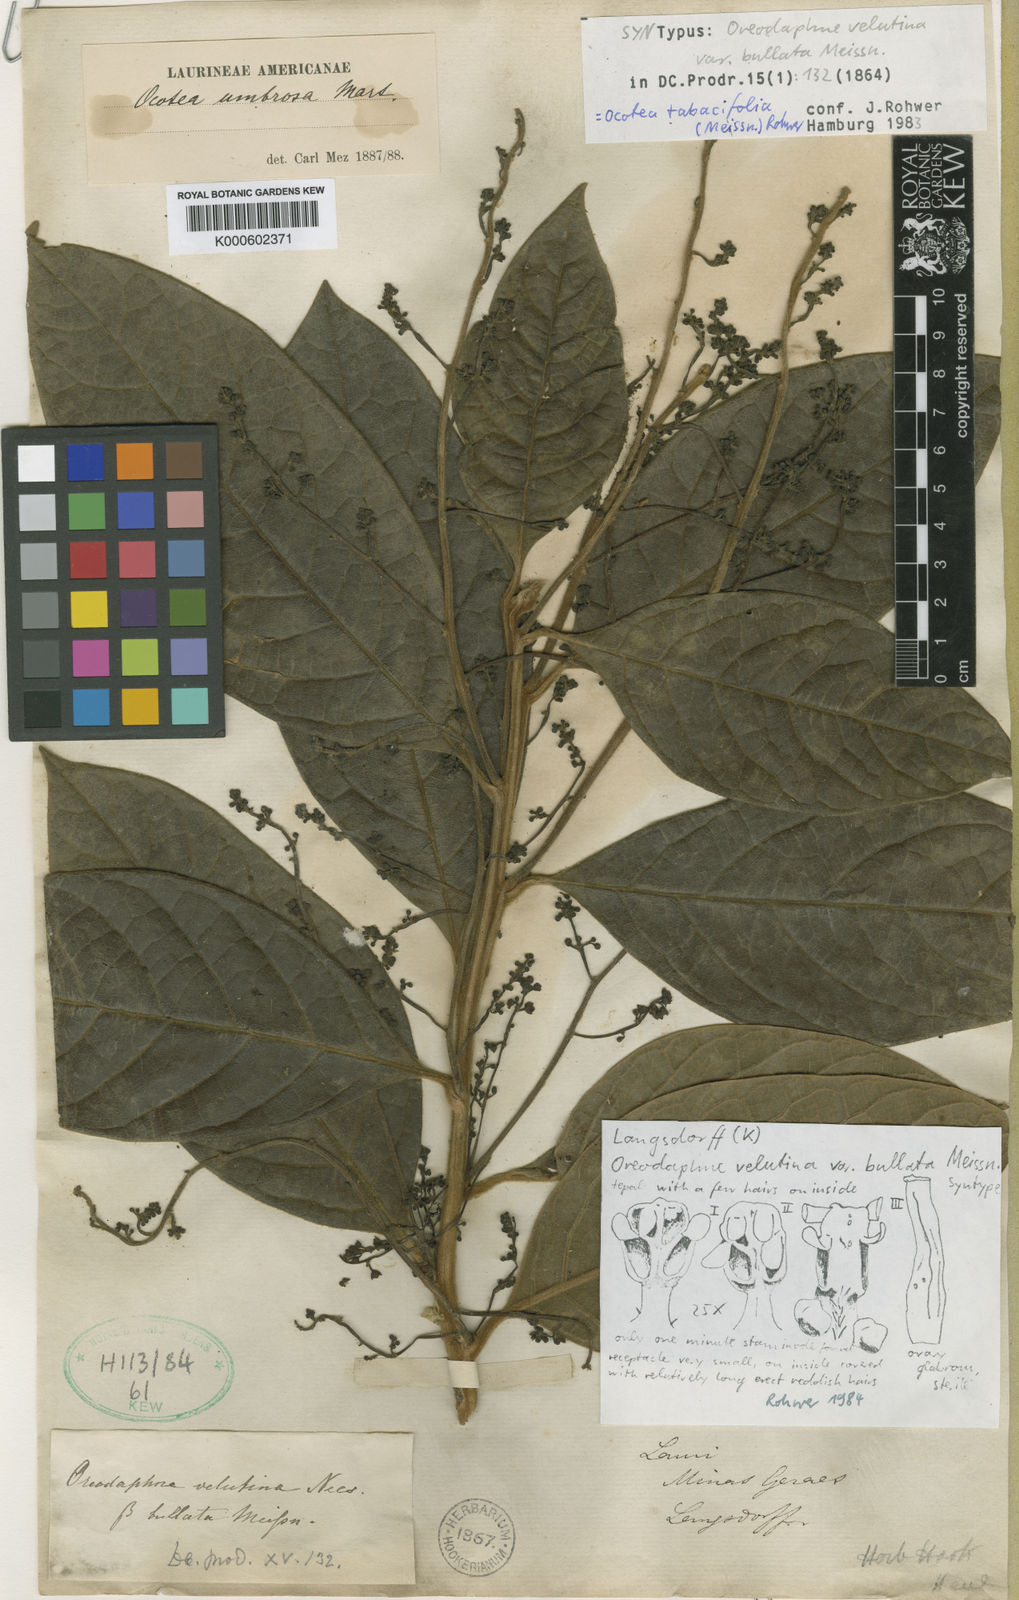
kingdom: Plantae
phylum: Tracheophyta
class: Magnoliopsida
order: Laurales
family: Lauraceae
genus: Ocotea
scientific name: Ocotea tabacifolia
